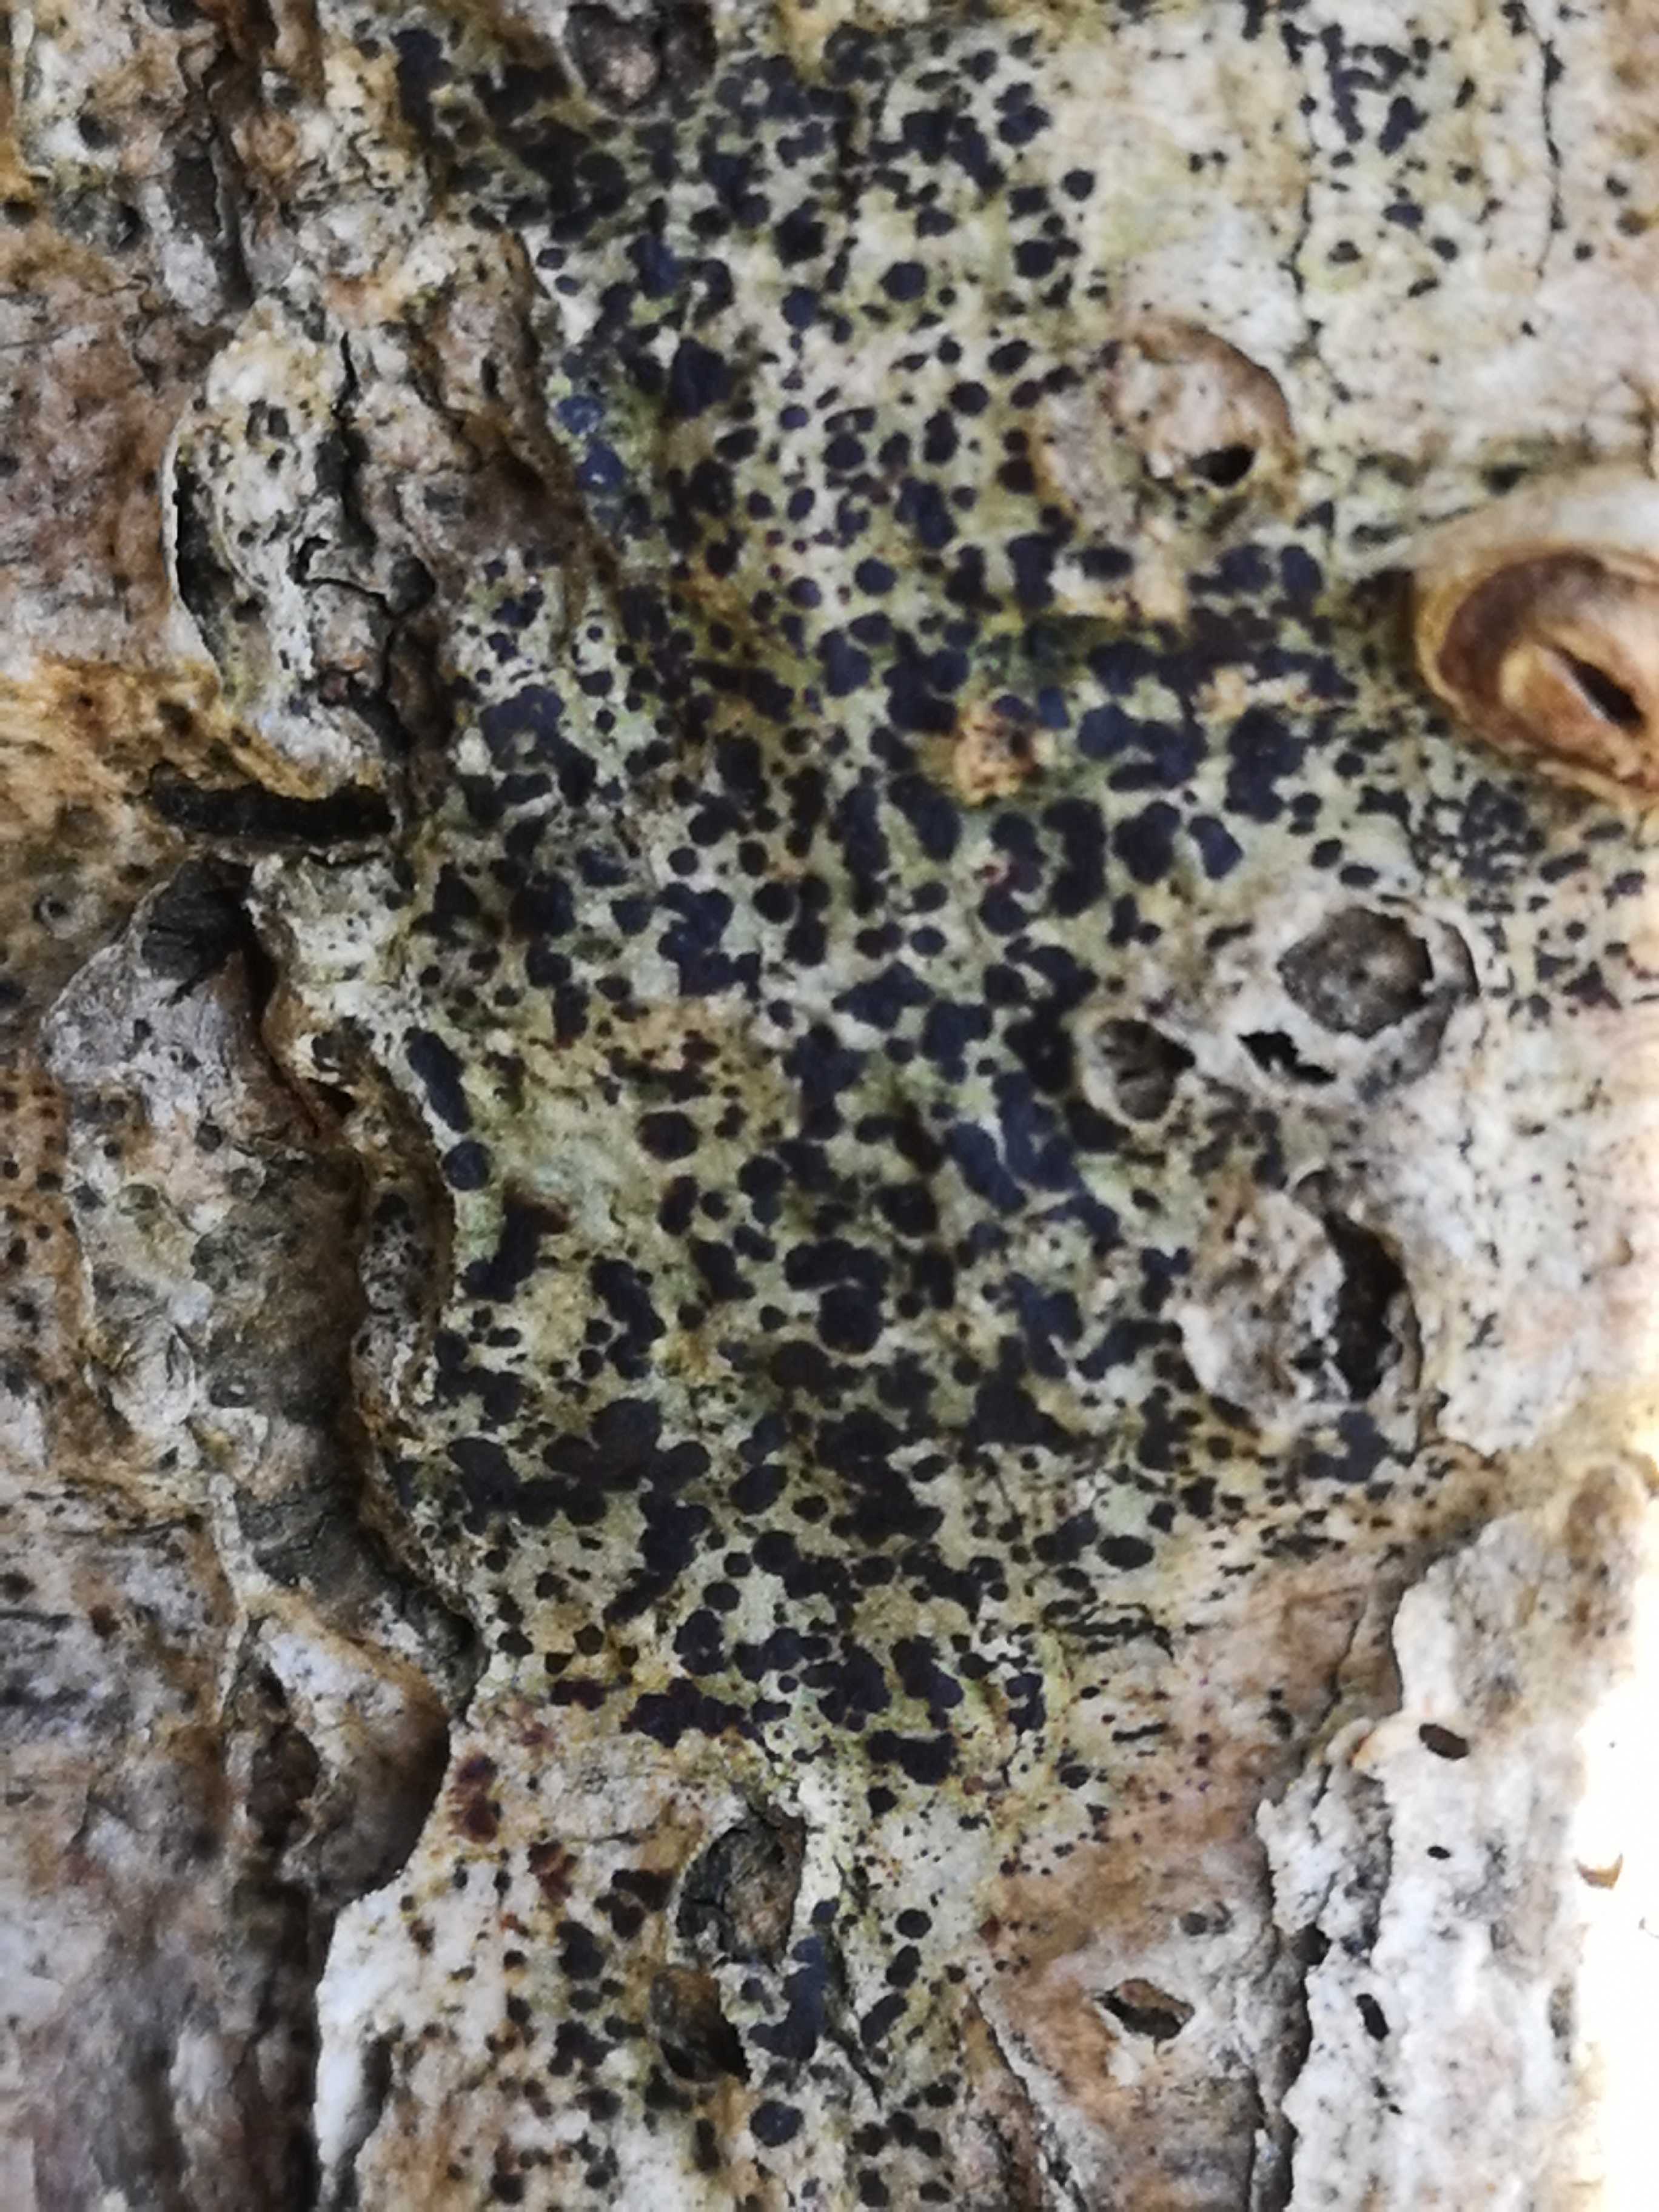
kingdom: Fungi
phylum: Ascomycota
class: Lecanoromycetes
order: Lecanorales
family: Parmeliaceae
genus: Lichen
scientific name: Lichen
